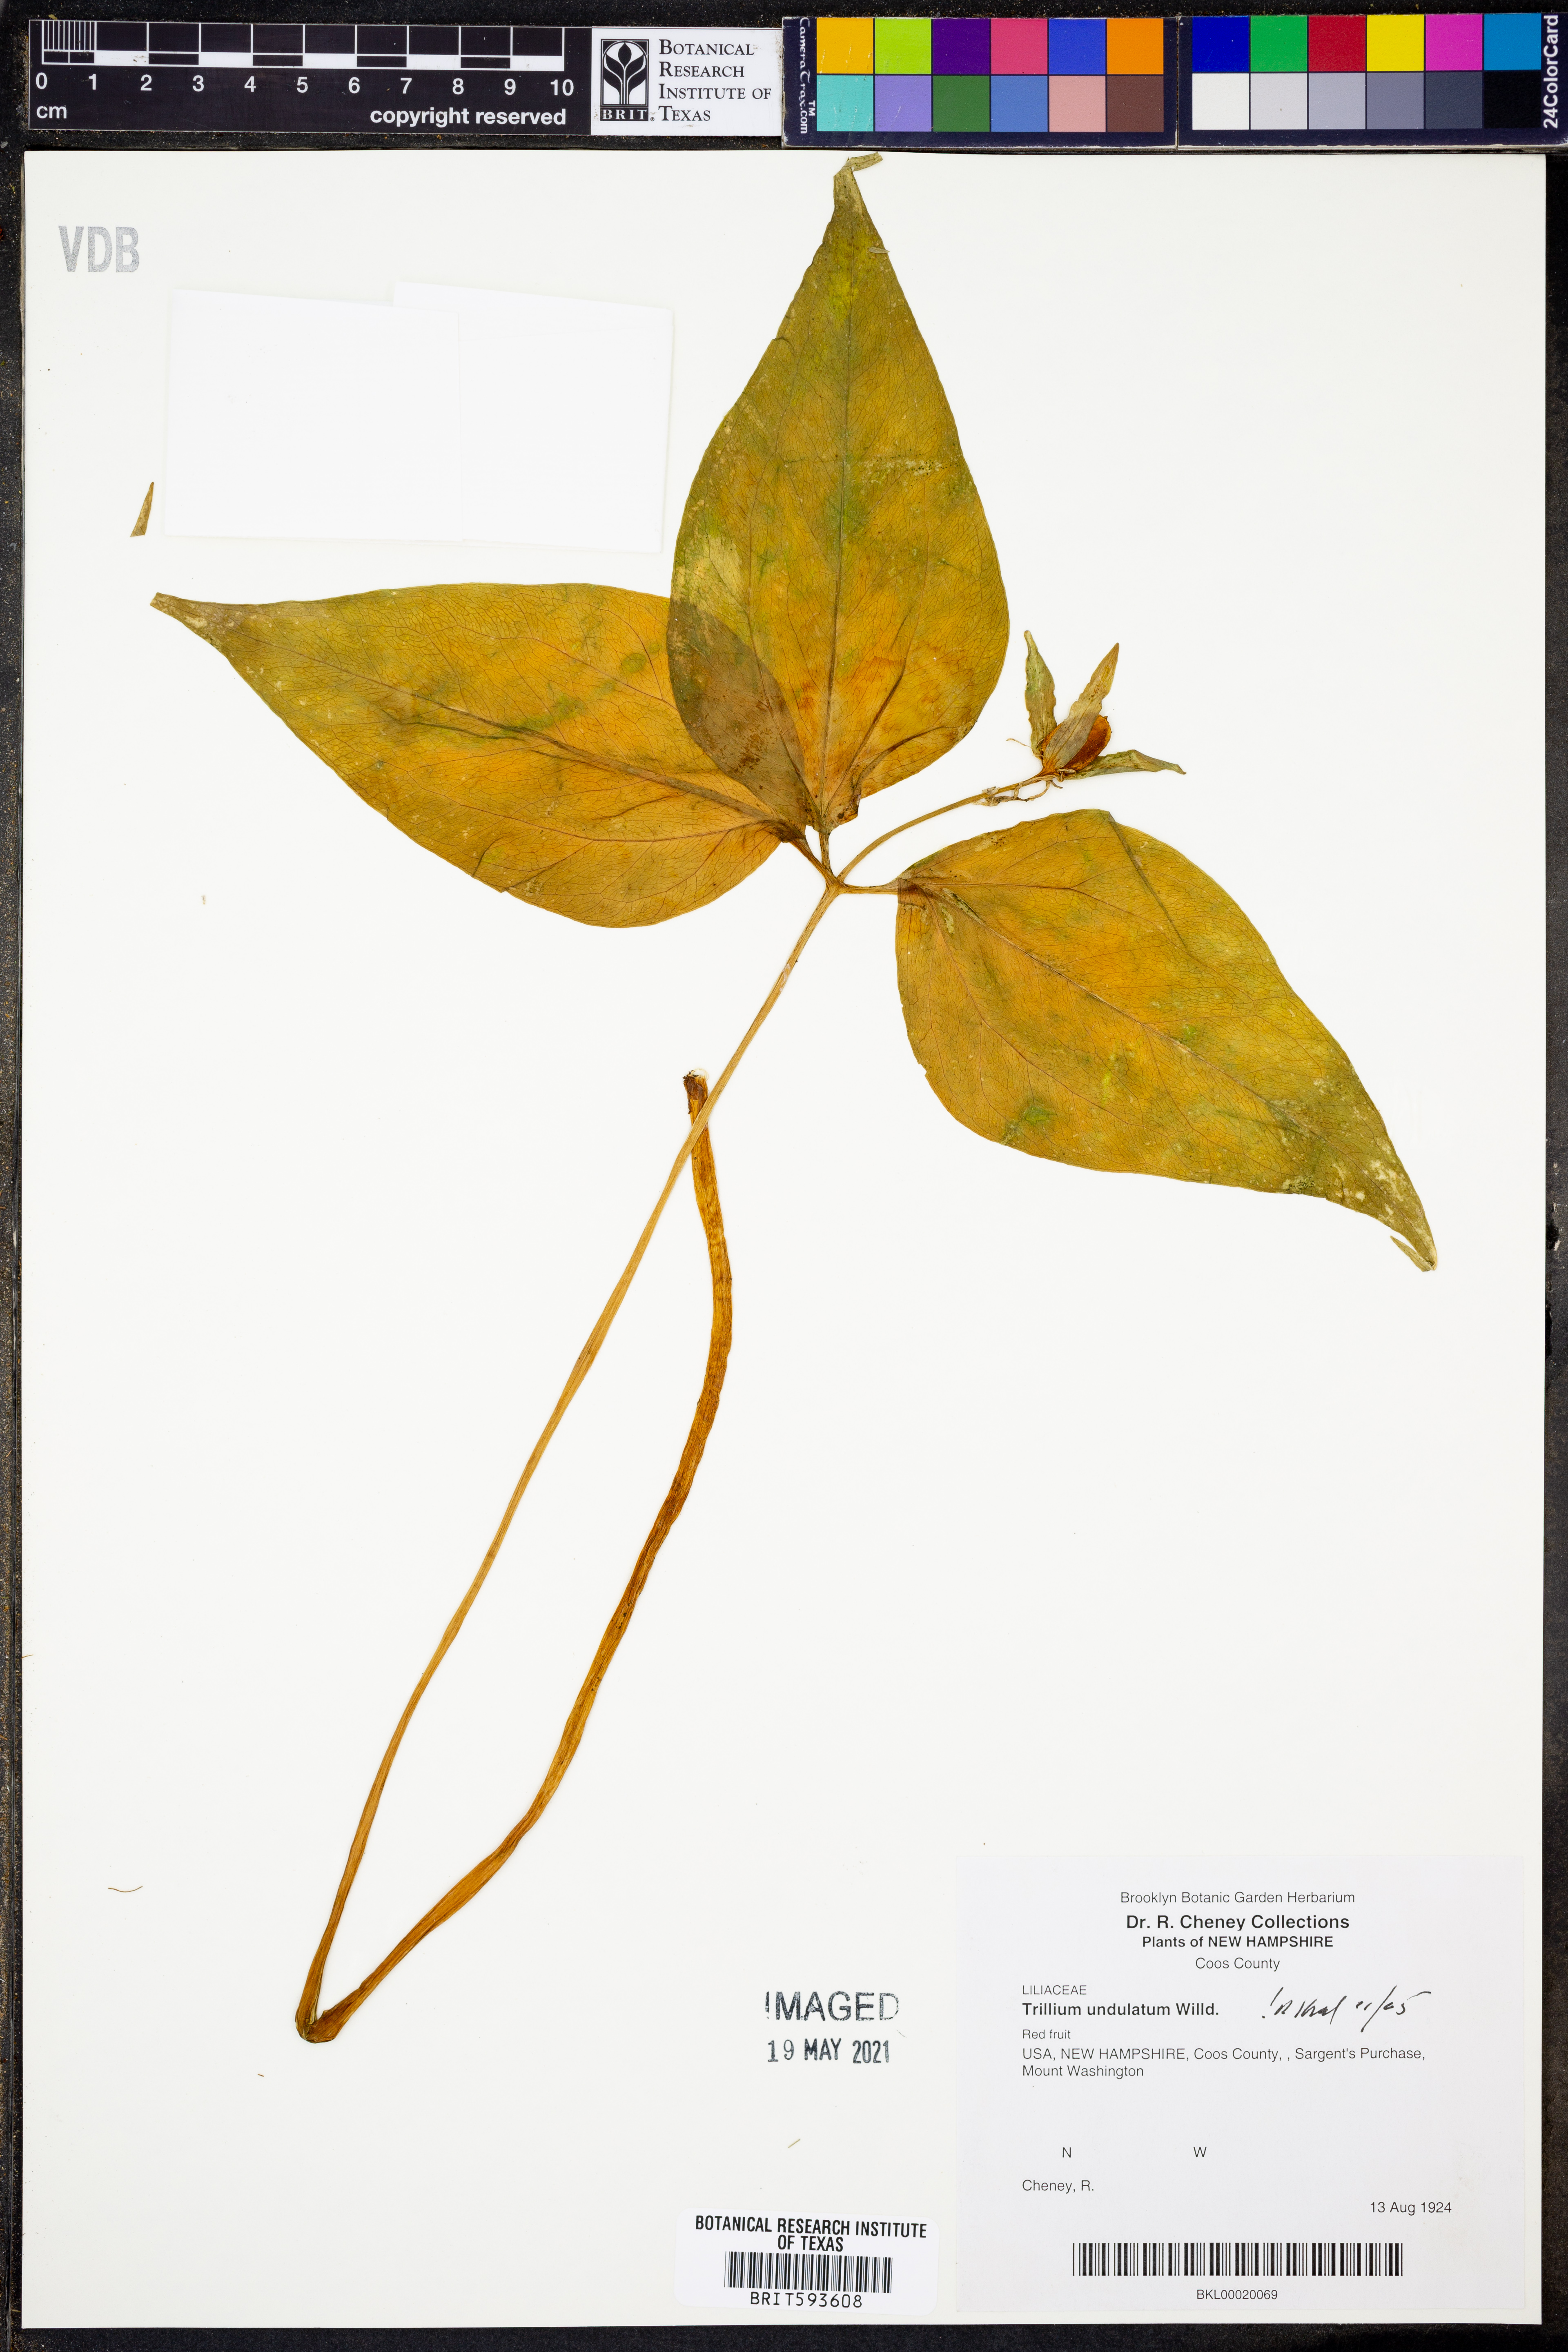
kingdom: Plantae
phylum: Tracheophyta
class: Liliopsida
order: Liliales
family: Melanthiaceae
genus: Trillium
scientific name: Trillium undulatum
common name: Paint trillium
